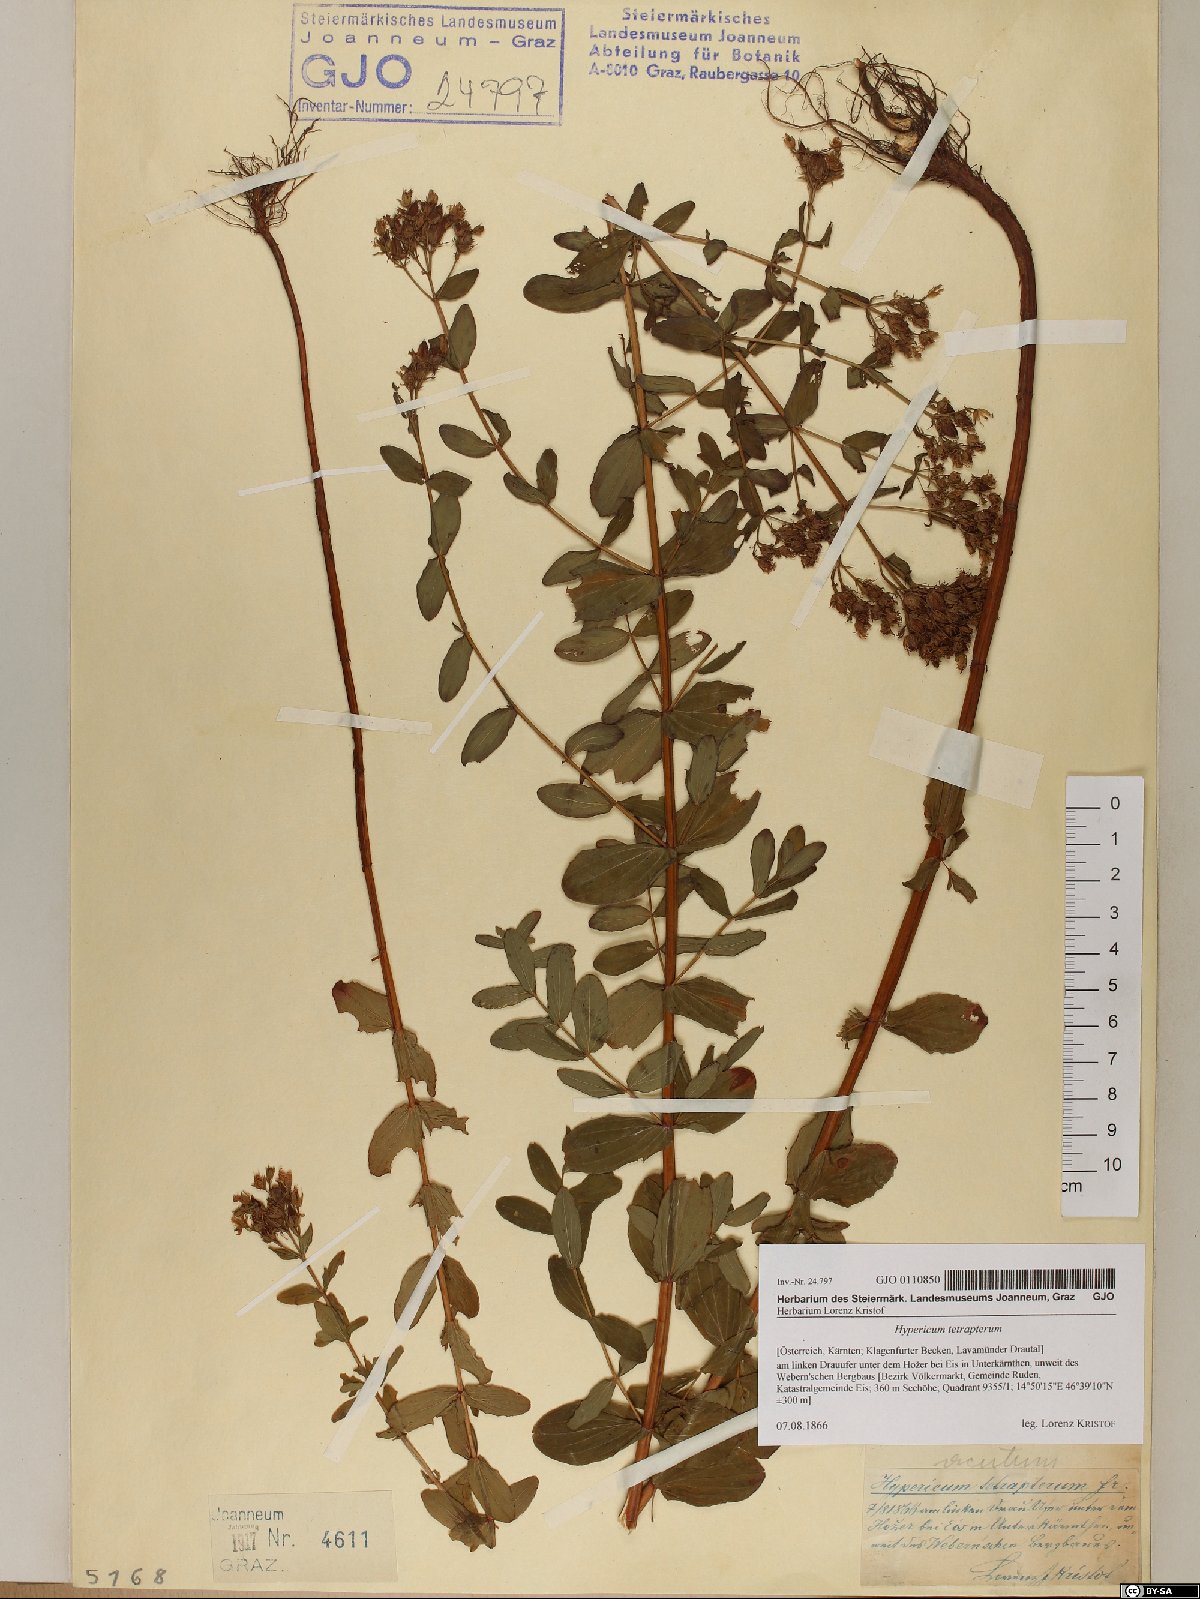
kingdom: Plantae
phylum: Tracheophyta
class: Magnoliopsida
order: Malpighiales
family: Hypericaceae
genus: Hypericum
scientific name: Hypericum tetrapterum
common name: Square-stalked st. john's-wort
